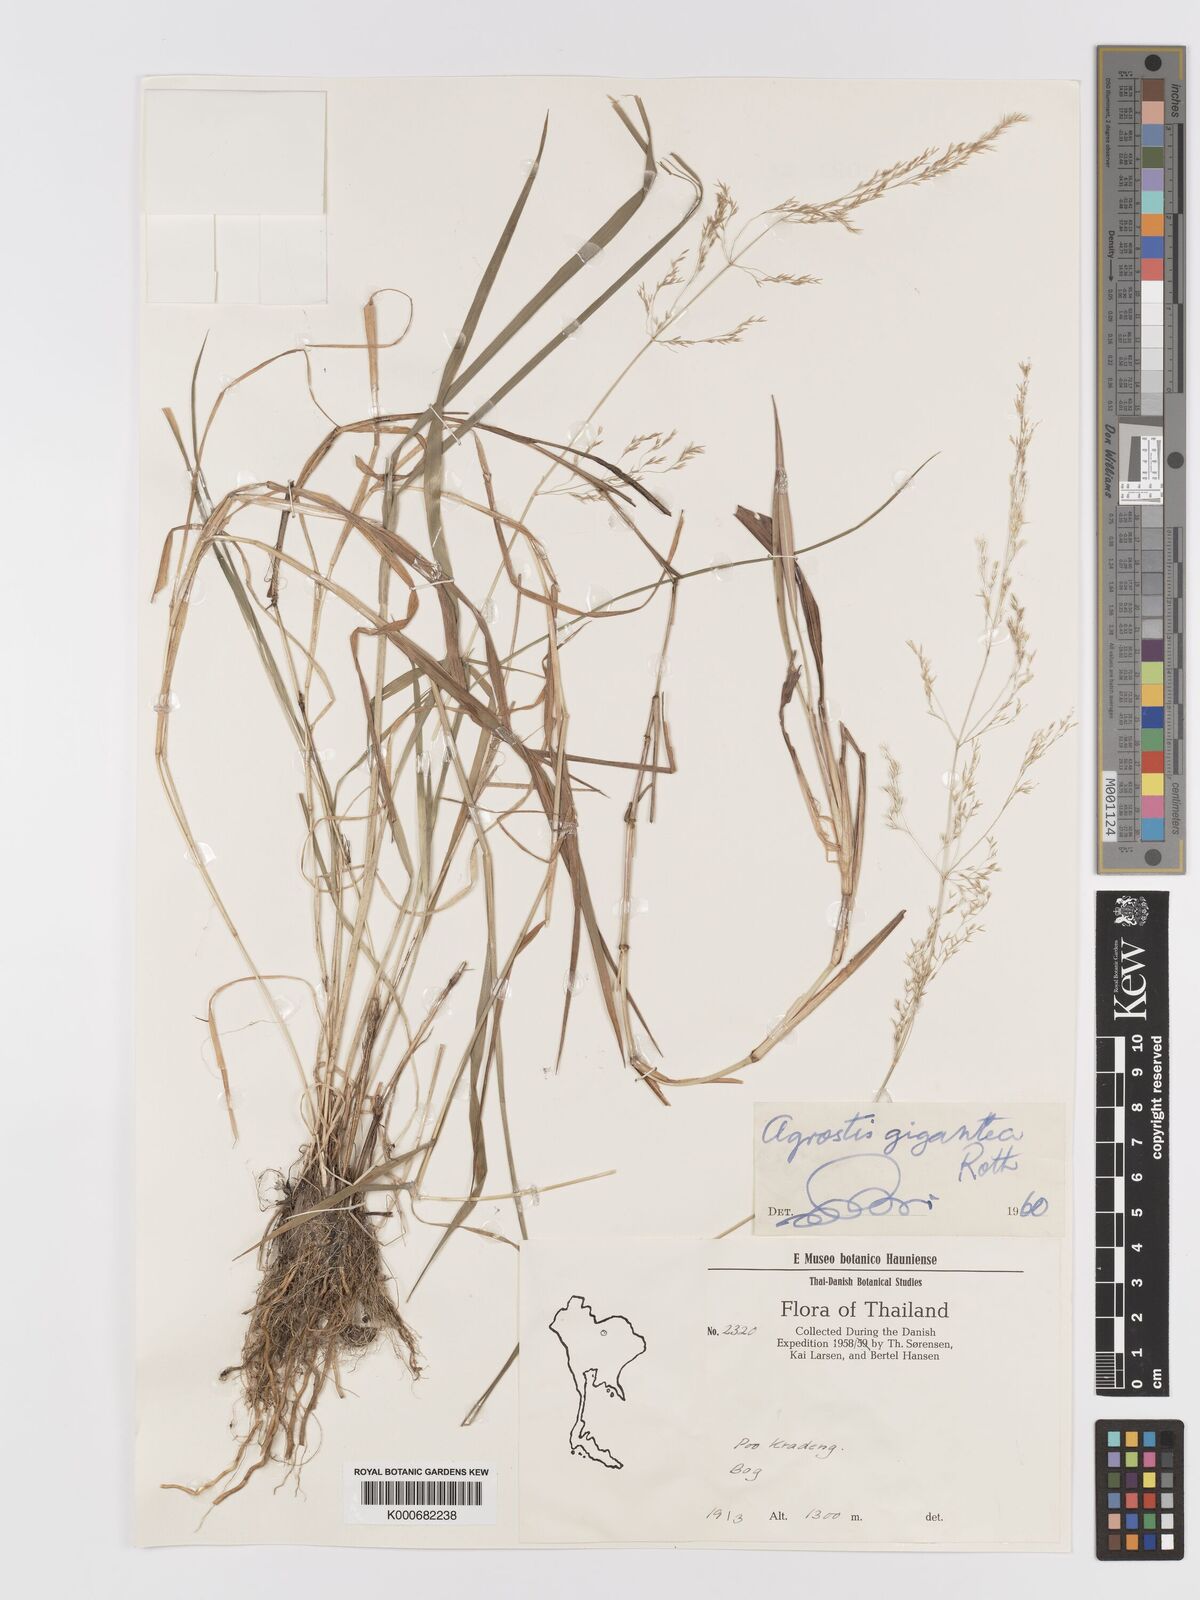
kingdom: Plantae
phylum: Tracheophyta
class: Liliopsida
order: Poales
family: Poaceae
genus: Agrostis
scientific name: Agrostis gigantea
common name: Black bent
